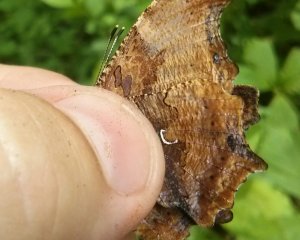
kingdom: Animalia
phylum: Arthropoda
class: Insecta
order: Lepidoptera
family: Nymphalidae
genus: Polygonia
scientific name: Polygonia comma
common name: Eastern Comma
